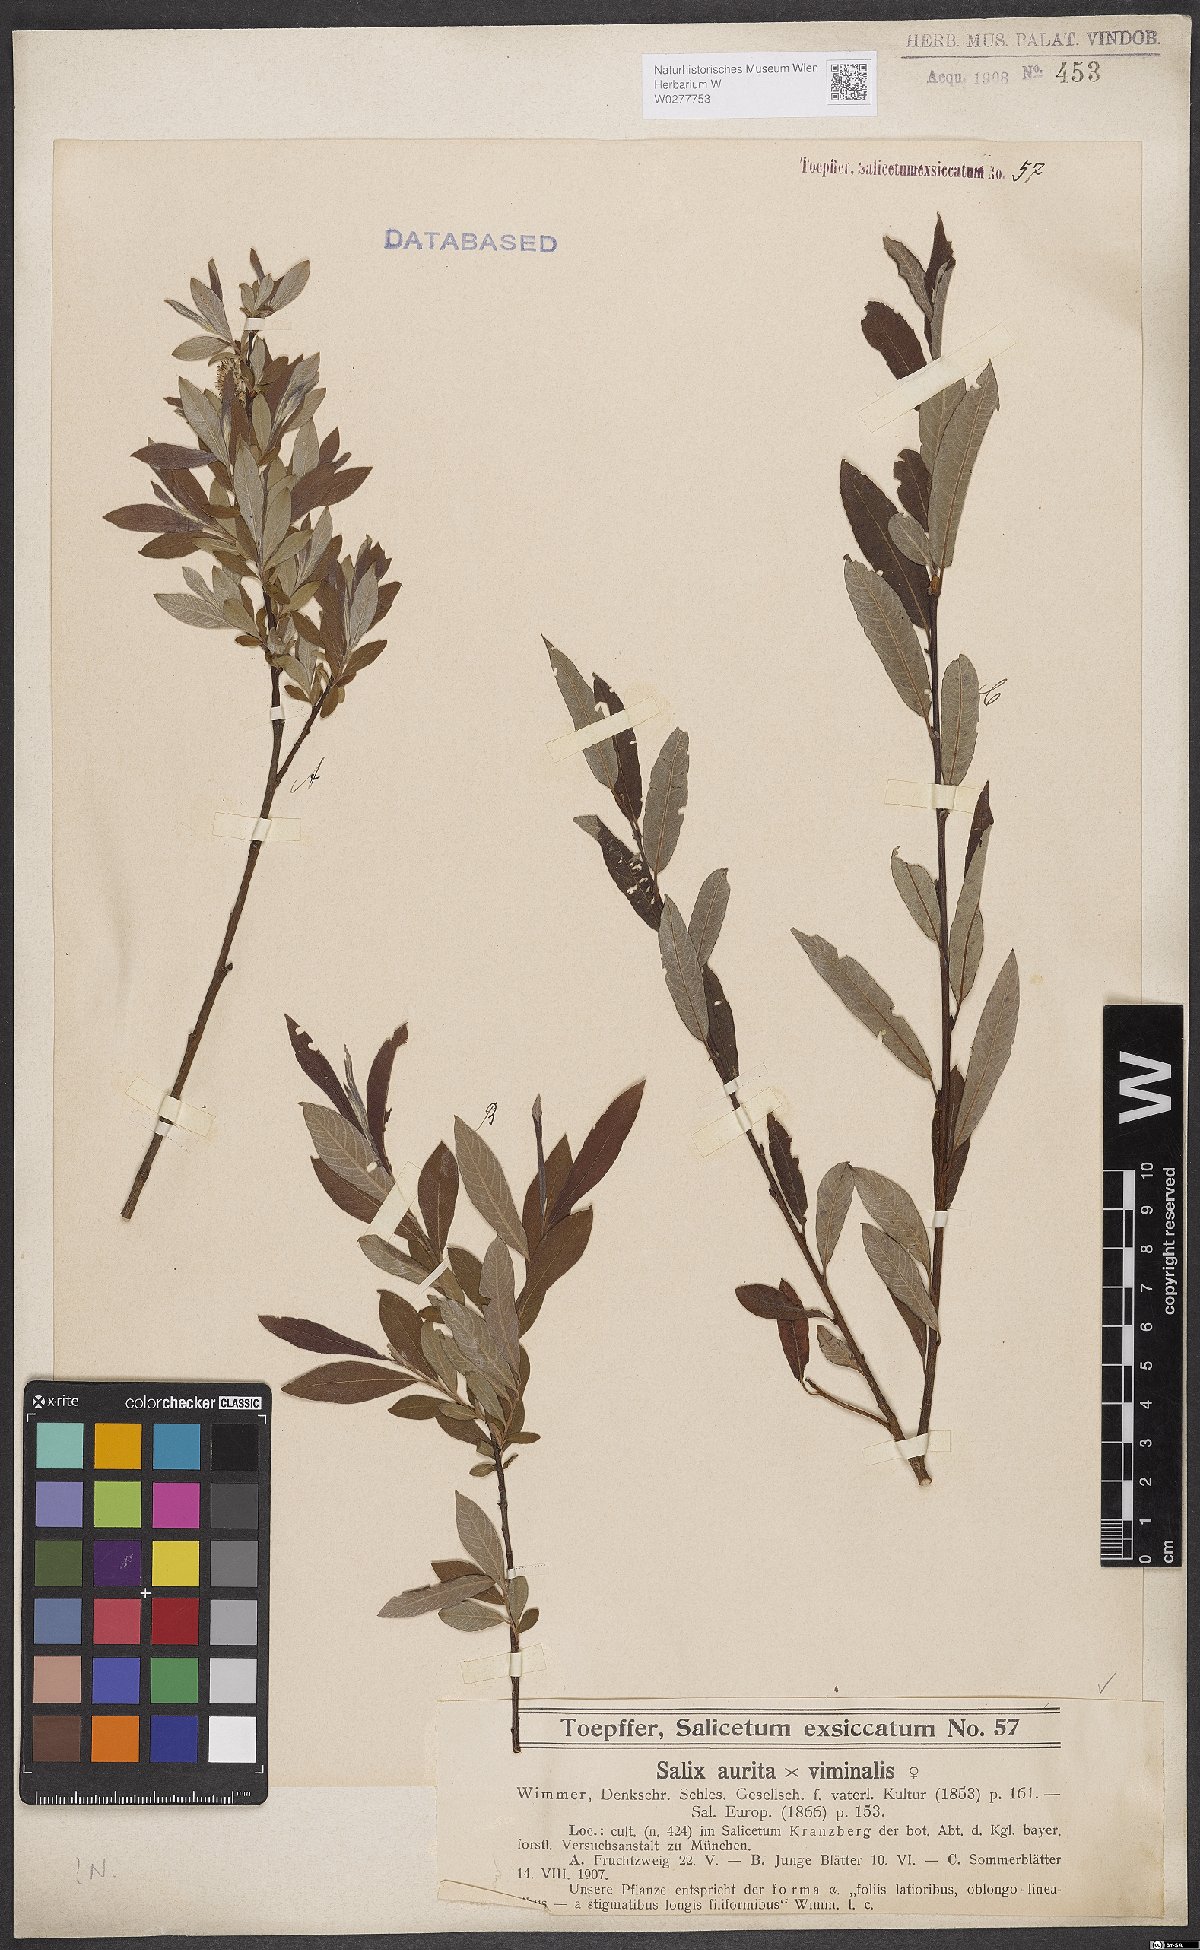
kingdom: Plantae
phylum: Tracheophyta
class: Magnoliopsida
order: Malpighiales
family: Salicaceae
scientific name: Salicaceae
